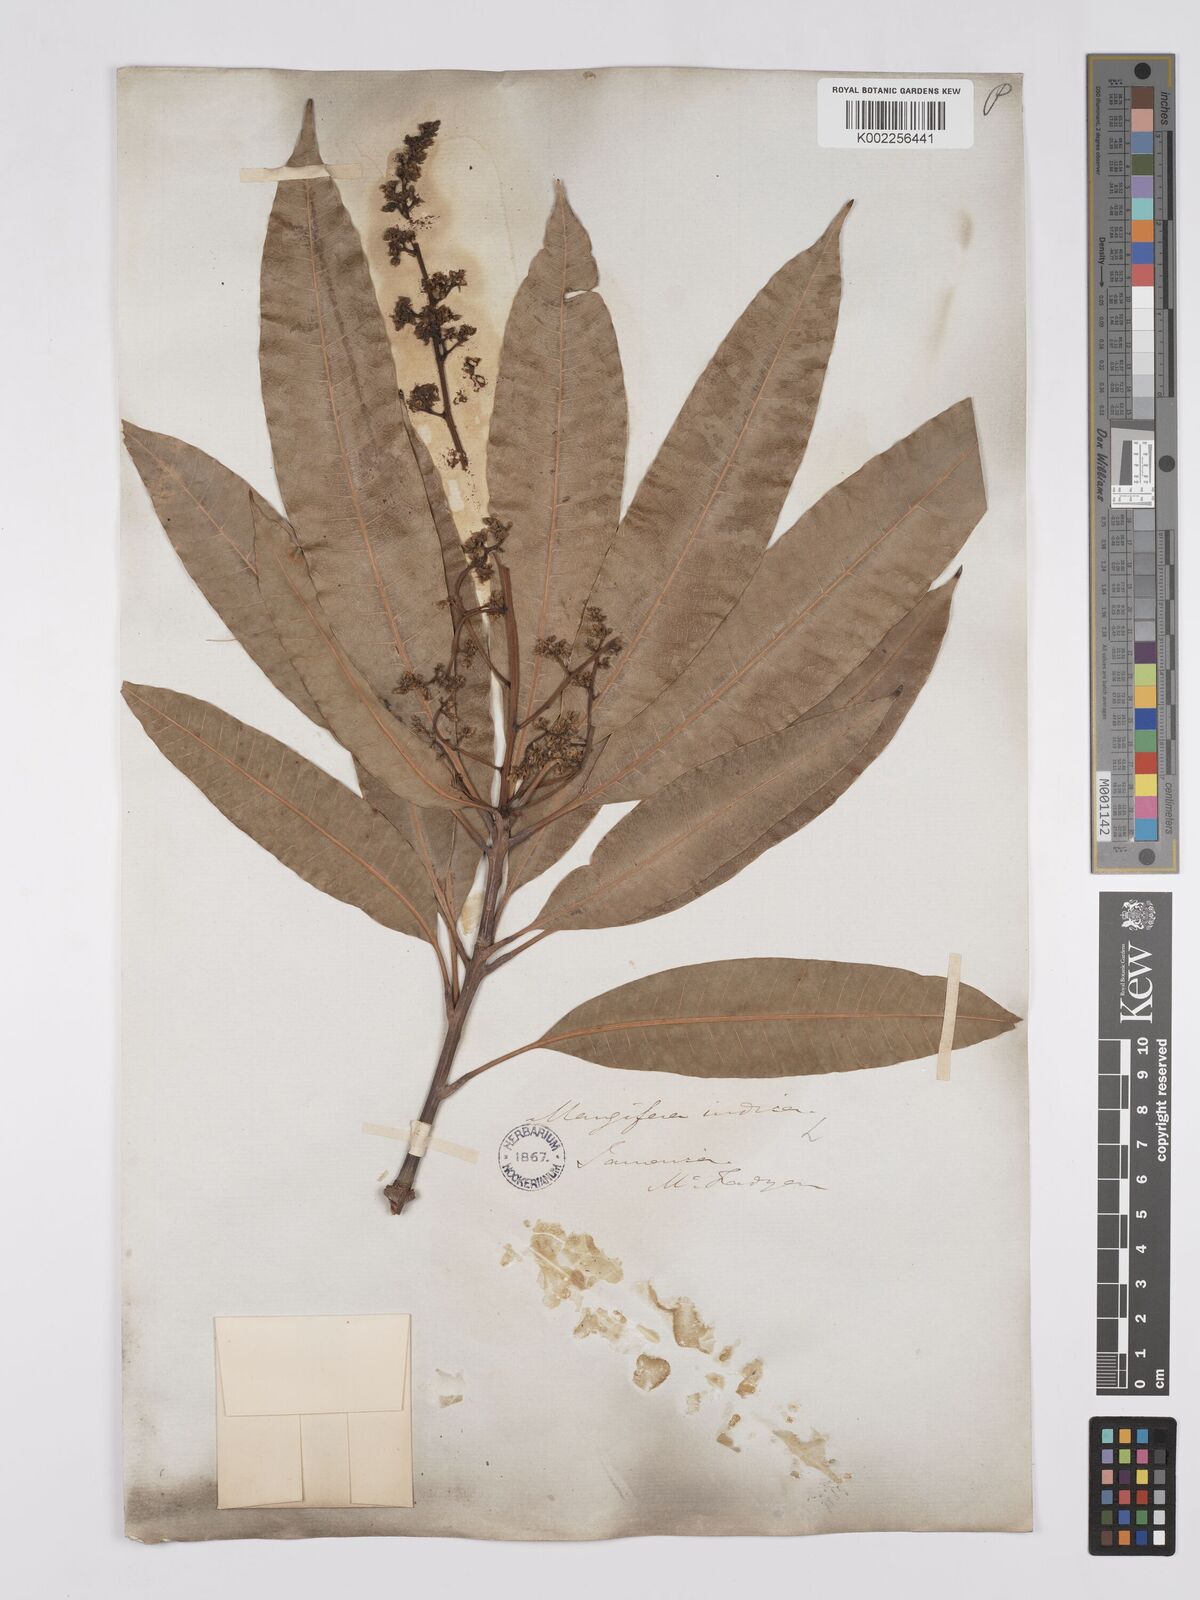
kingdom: Plantae
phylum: Tracheophyta
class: Magnoliopsida
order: Sapindales
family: Anacardiaceae
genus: Mangifera
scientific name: Mangifera indica
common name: Mango
